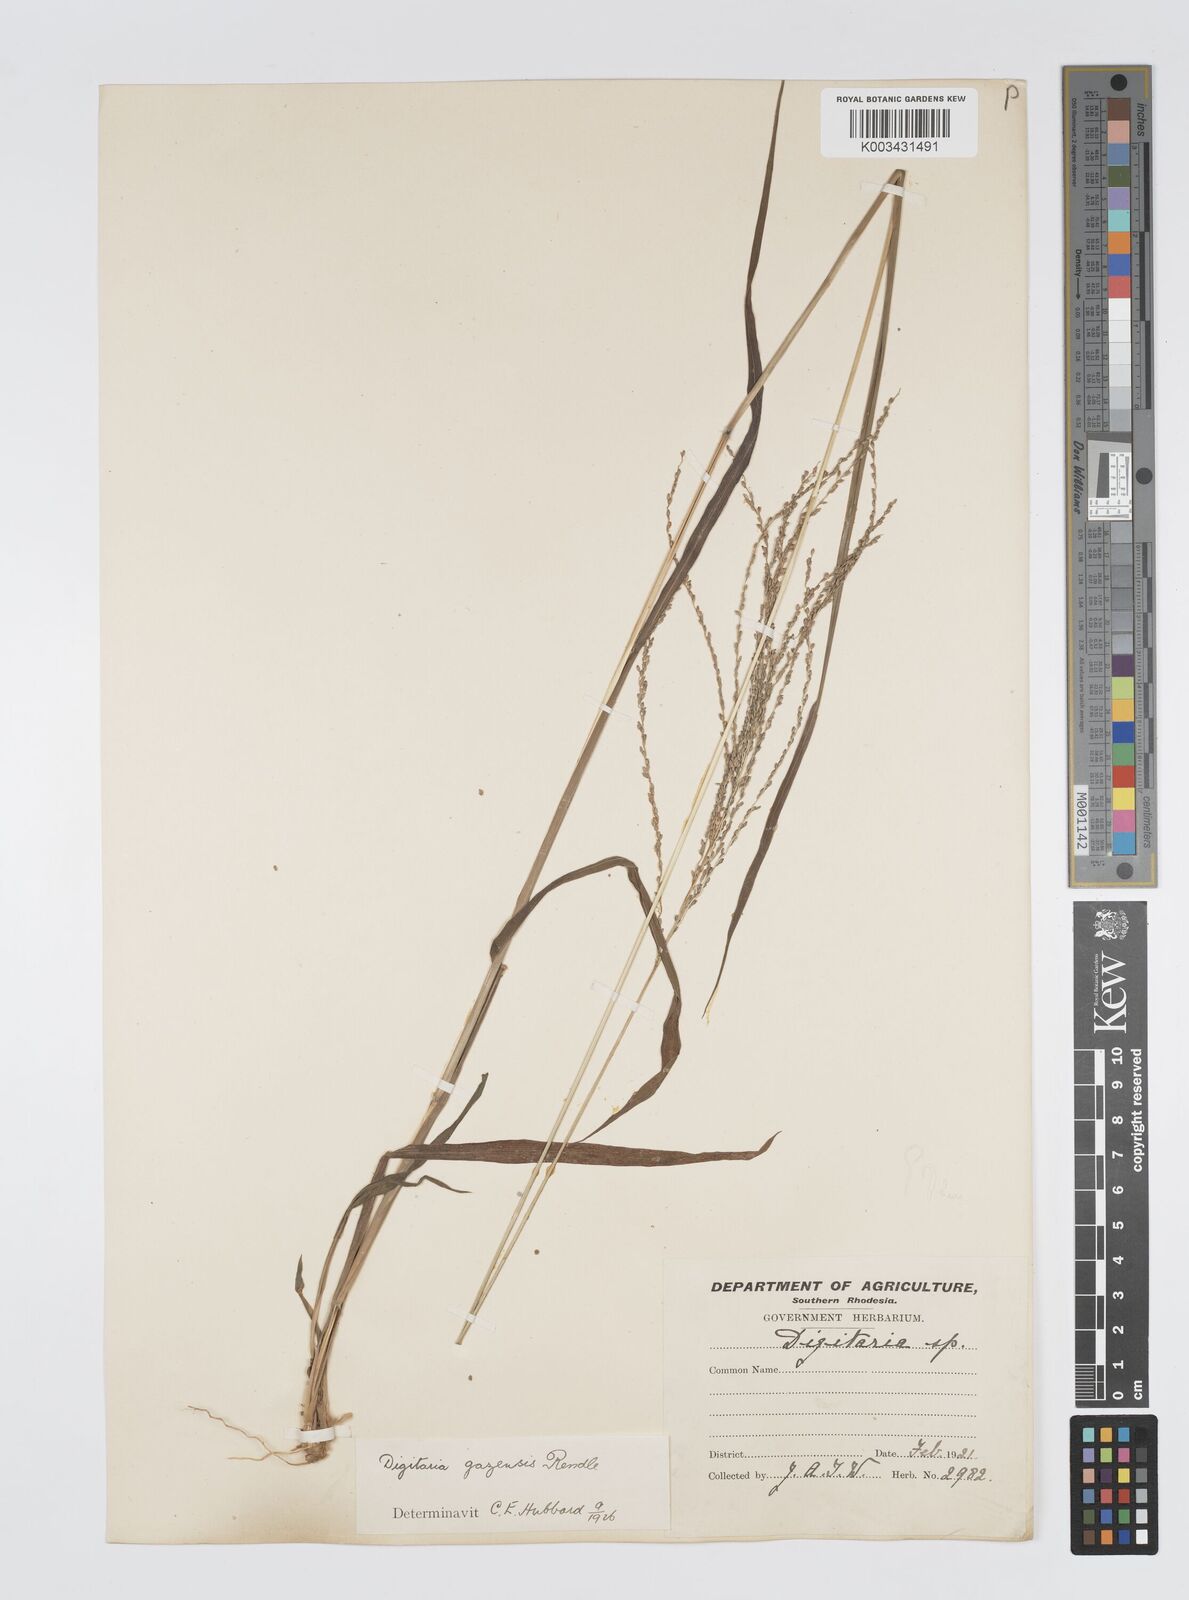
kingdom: Plantae
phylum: Tracheophyta
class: Liliopsida
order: Poales
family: Poaceae
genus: Digitaria
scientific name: Digitaria gazensis
